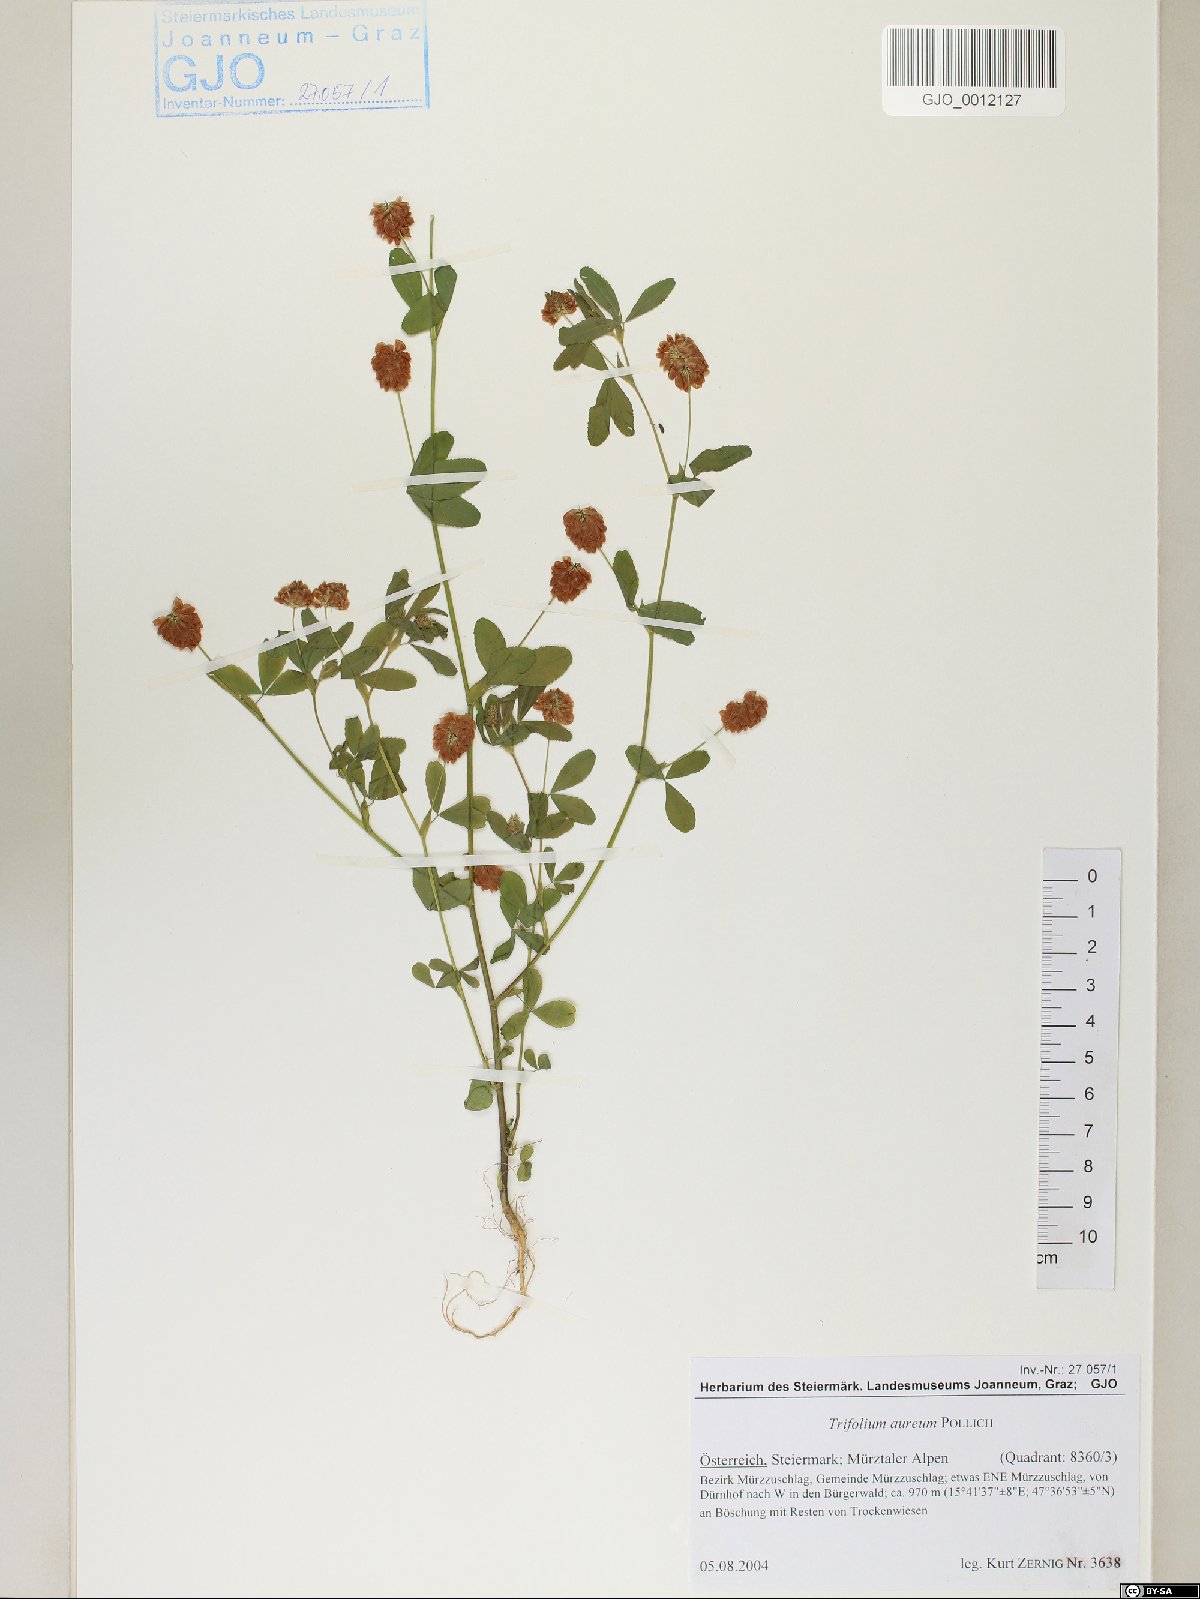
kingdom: Plantae
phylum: Tracheophyta
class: Magnoliopsida
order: Fabales
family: Fabaceae
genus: Trifolium
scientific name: Trifolium aureum
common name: Golden clover
